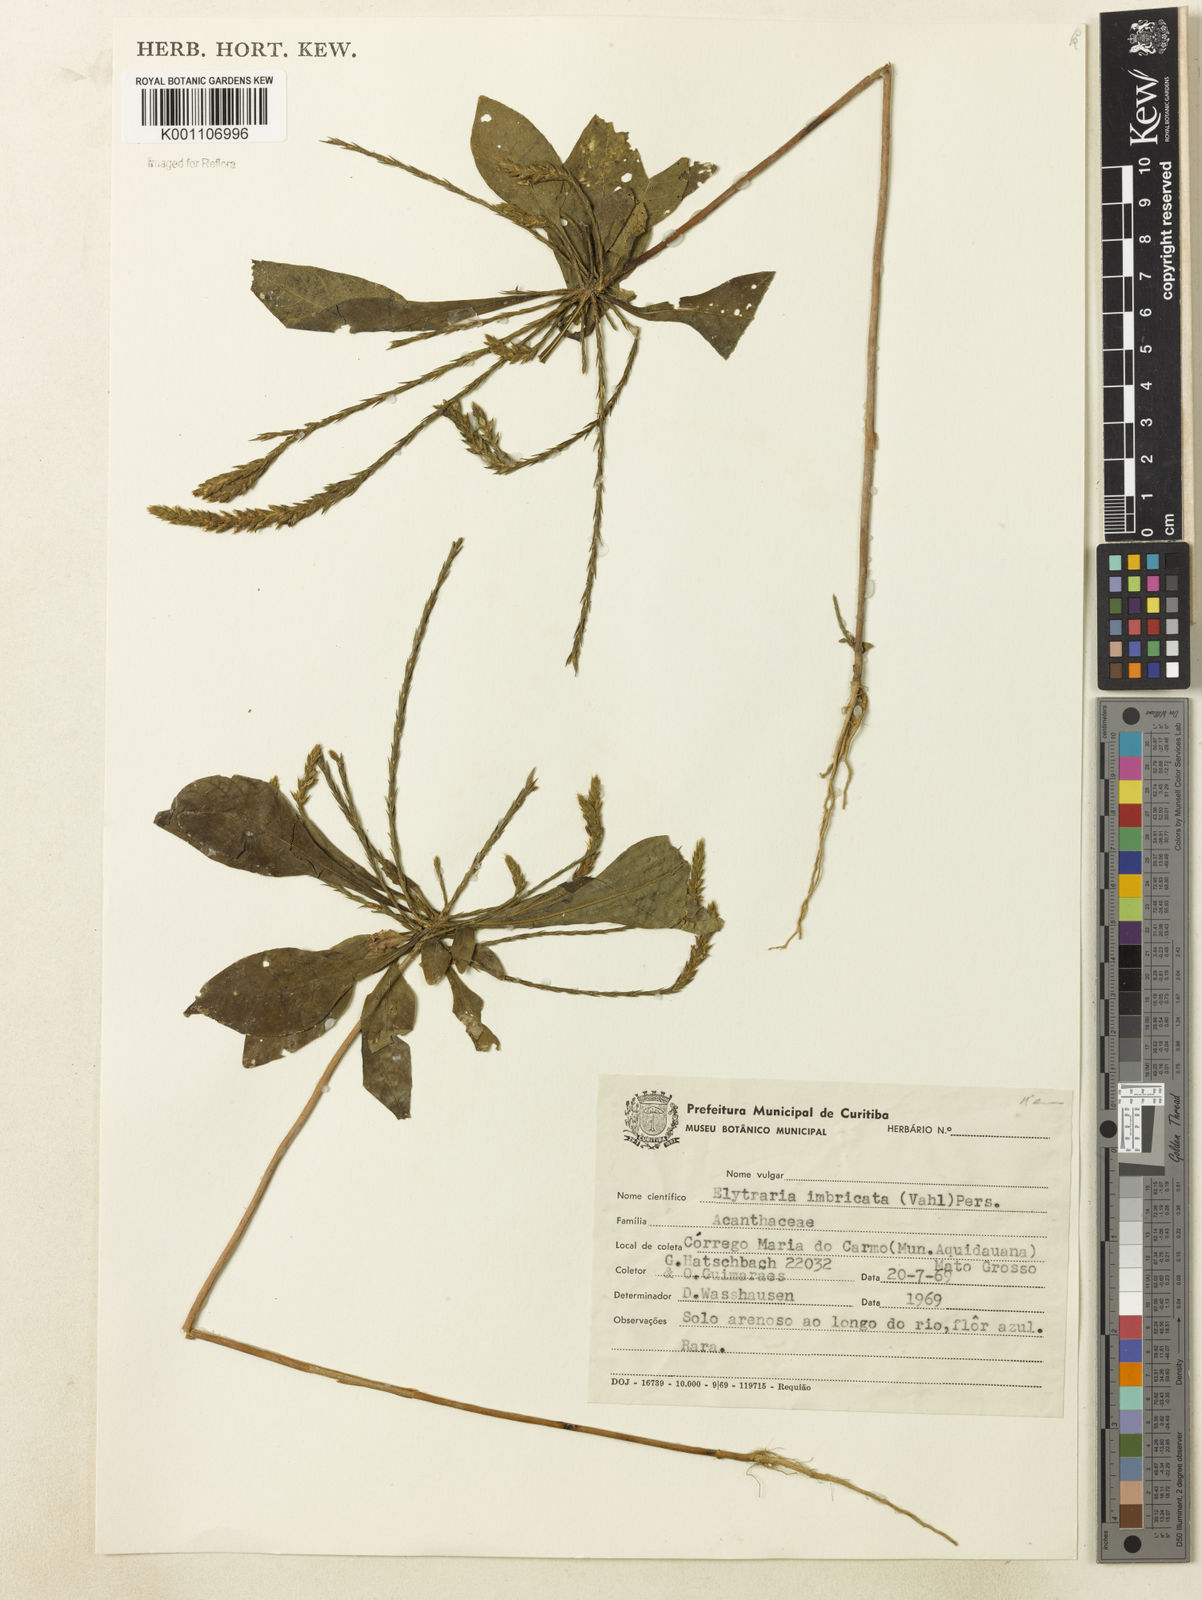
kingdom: Plantae
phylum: Tracheophyta
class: Magnoliopsida
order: Lamiales
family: Acanthaceae
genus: Elytraria
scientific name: Elytraria imbricata
